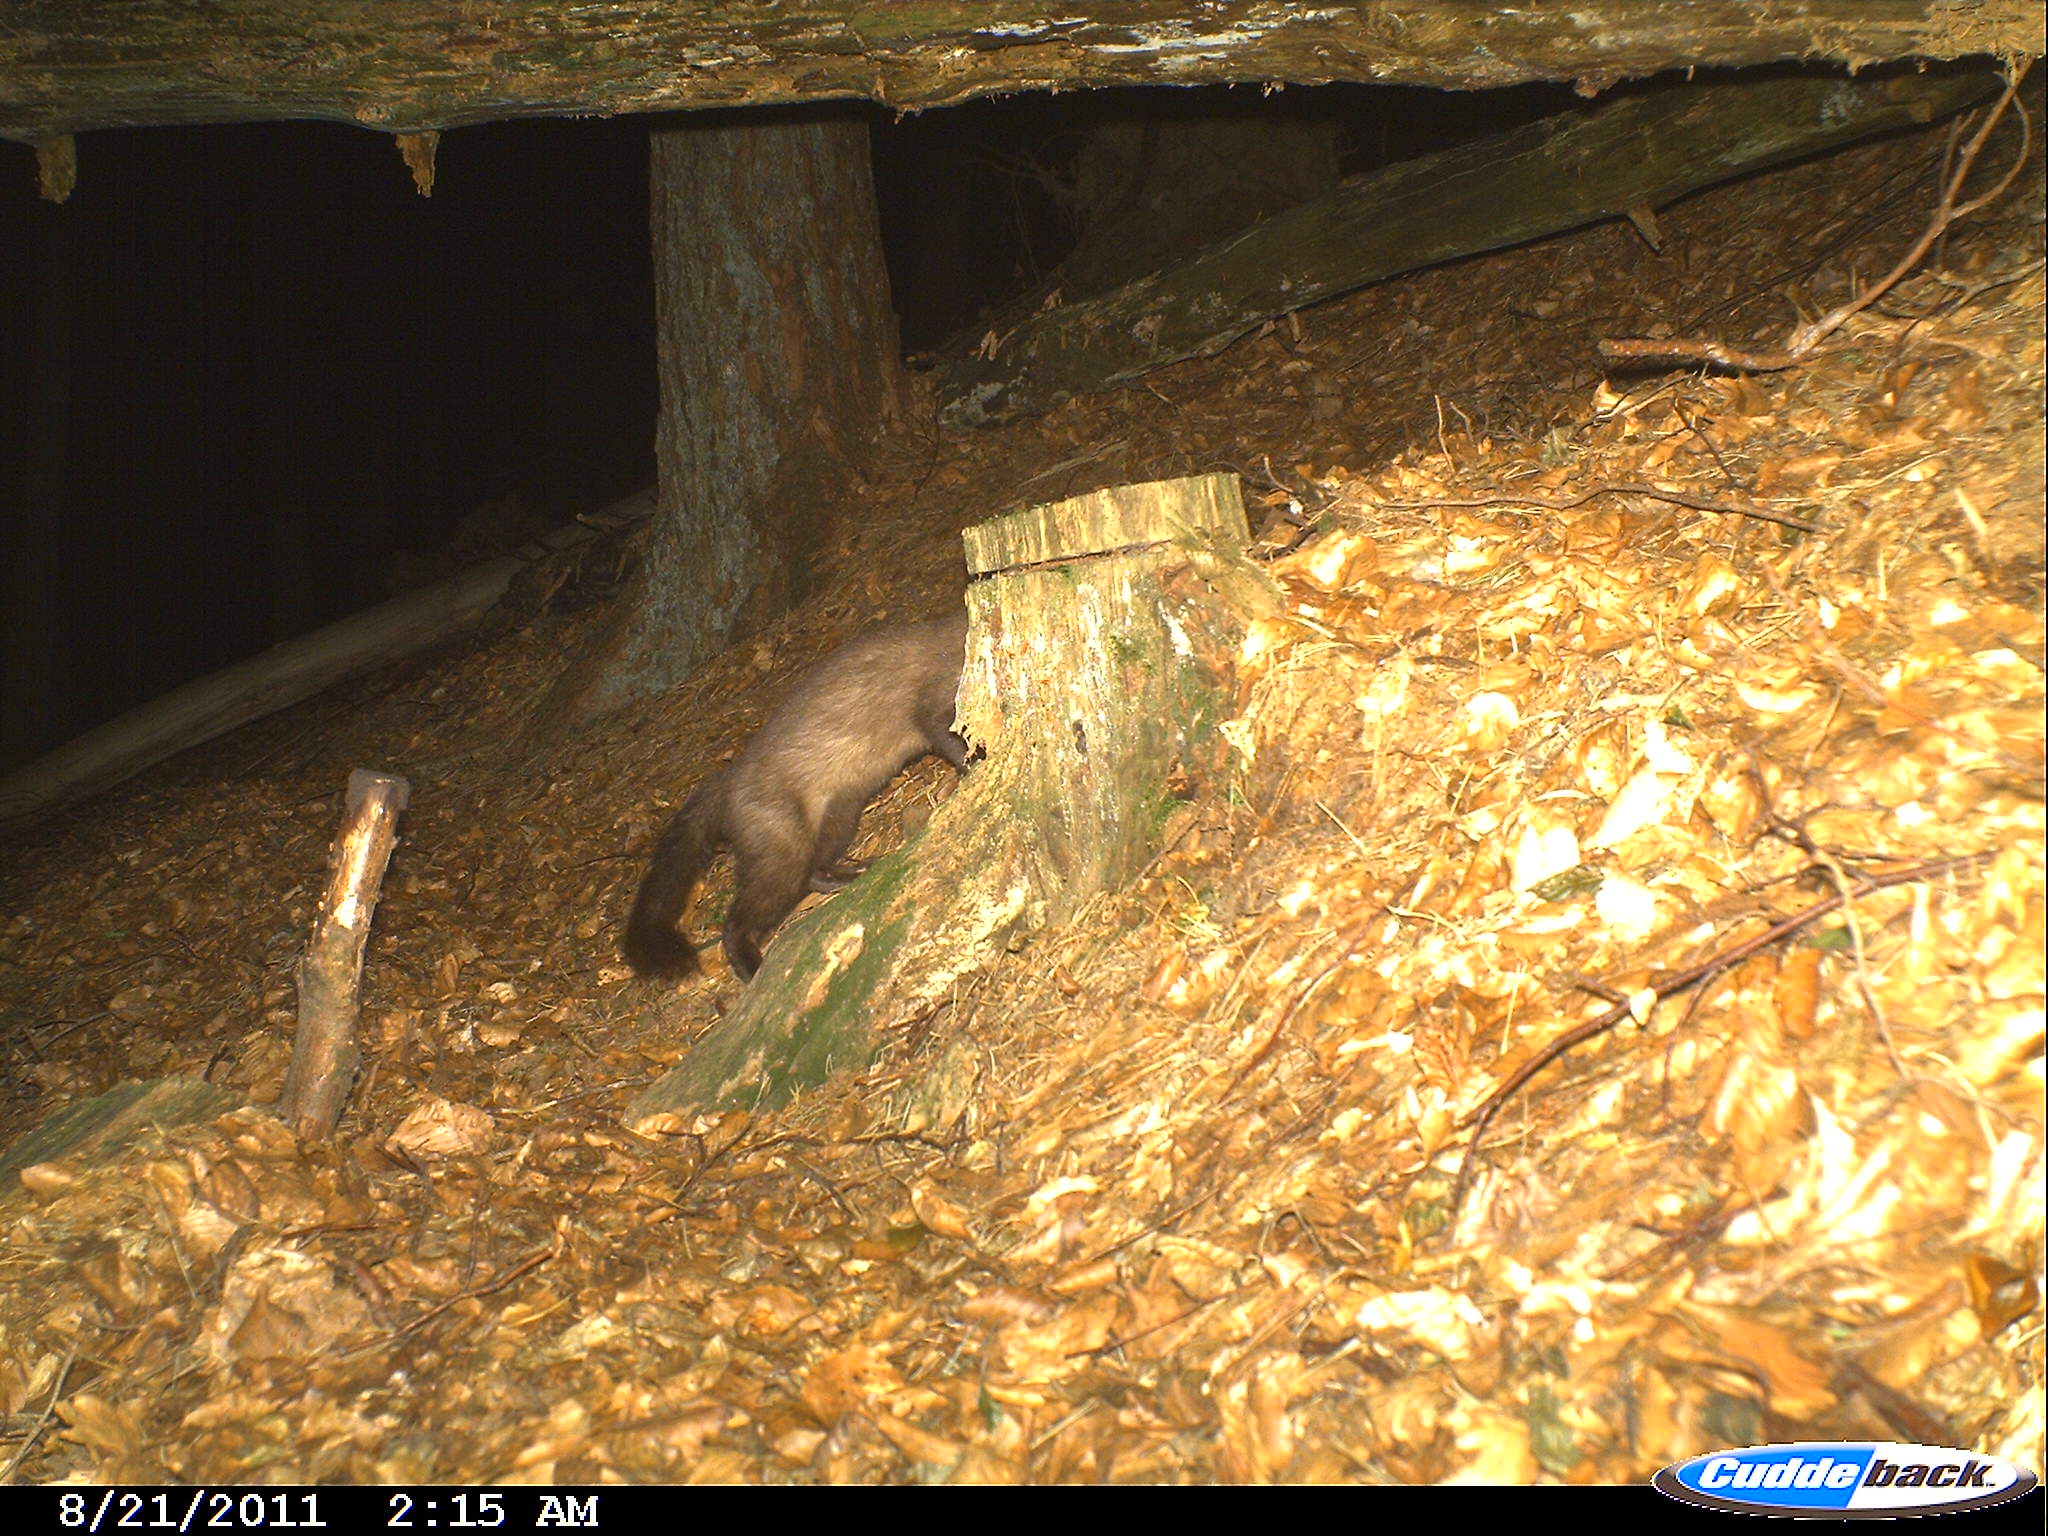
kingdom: Animalia
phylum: Chordata
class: Mammalia
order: Carnivora
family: Mustelidae
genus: Martes
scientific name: Martes
